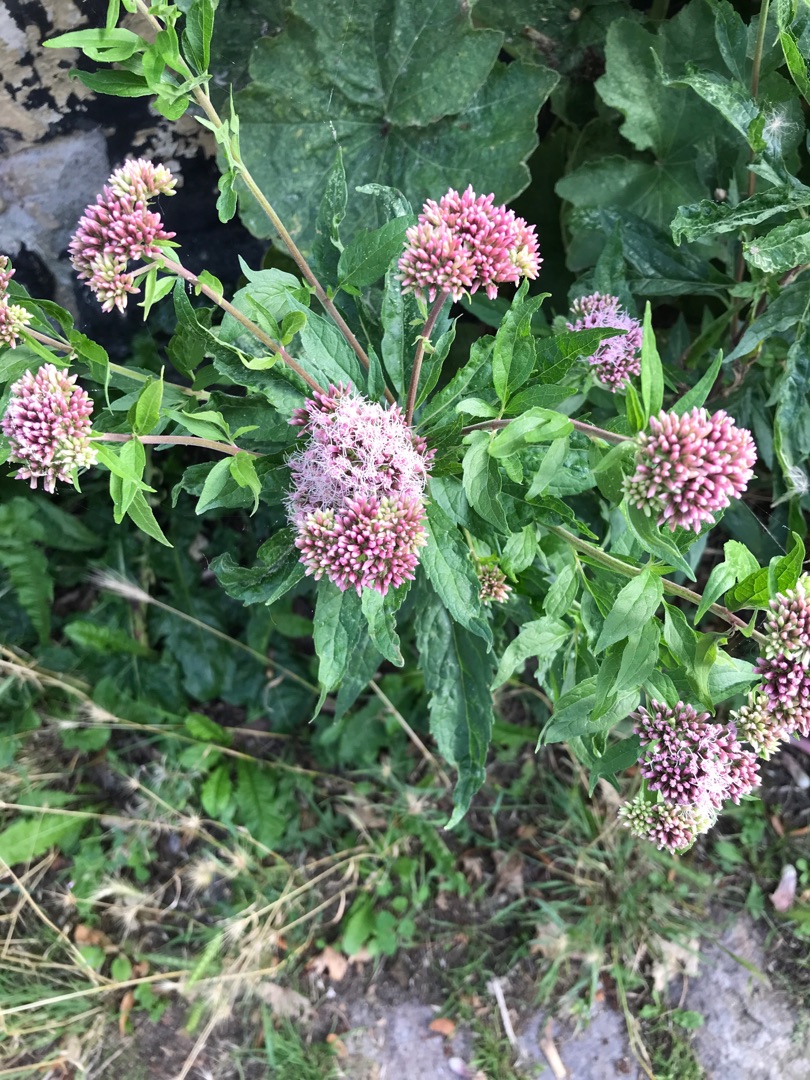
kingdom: Plantae
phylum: Tracheophyta
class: Magnoliopsida
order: Asterales
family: Asteraceae
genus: Eupatorium
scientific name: Eupatorium cannabinum
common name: Hjortetrøst
